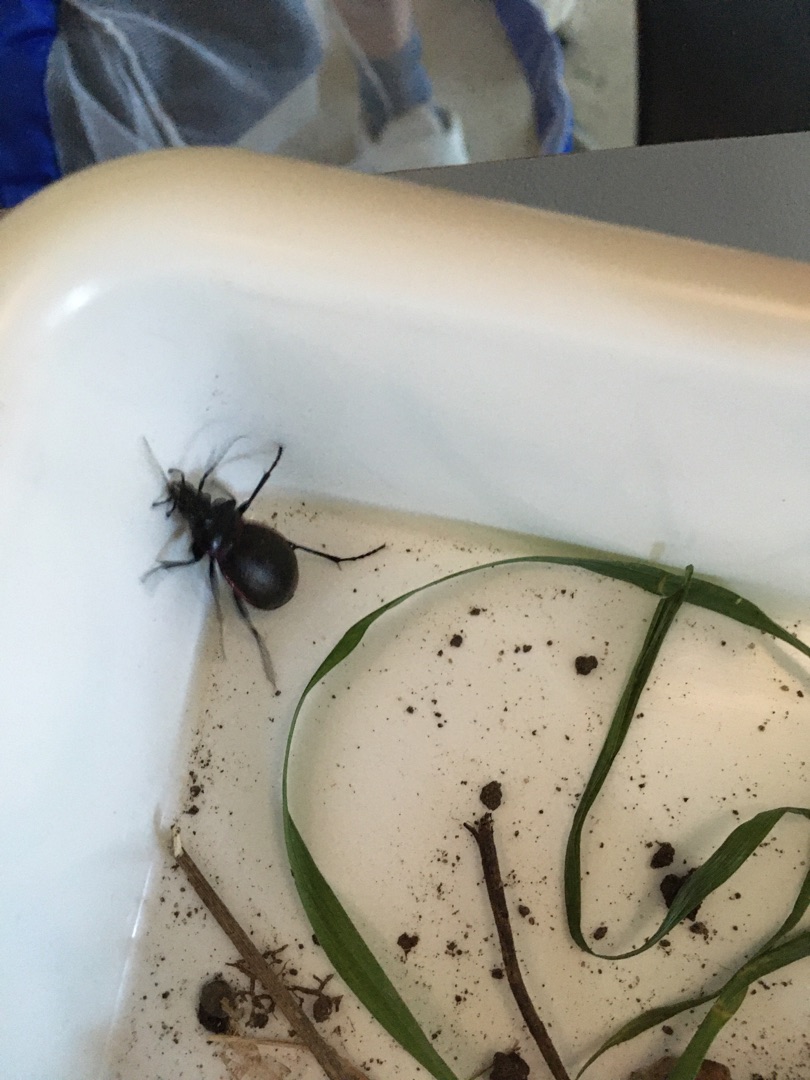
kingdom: Animalia
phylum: Arthropoda
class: Insecta
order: Coleoptera
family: Carabidae
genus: Carabus
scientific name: Carabus nemoralis
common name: Kratløber
